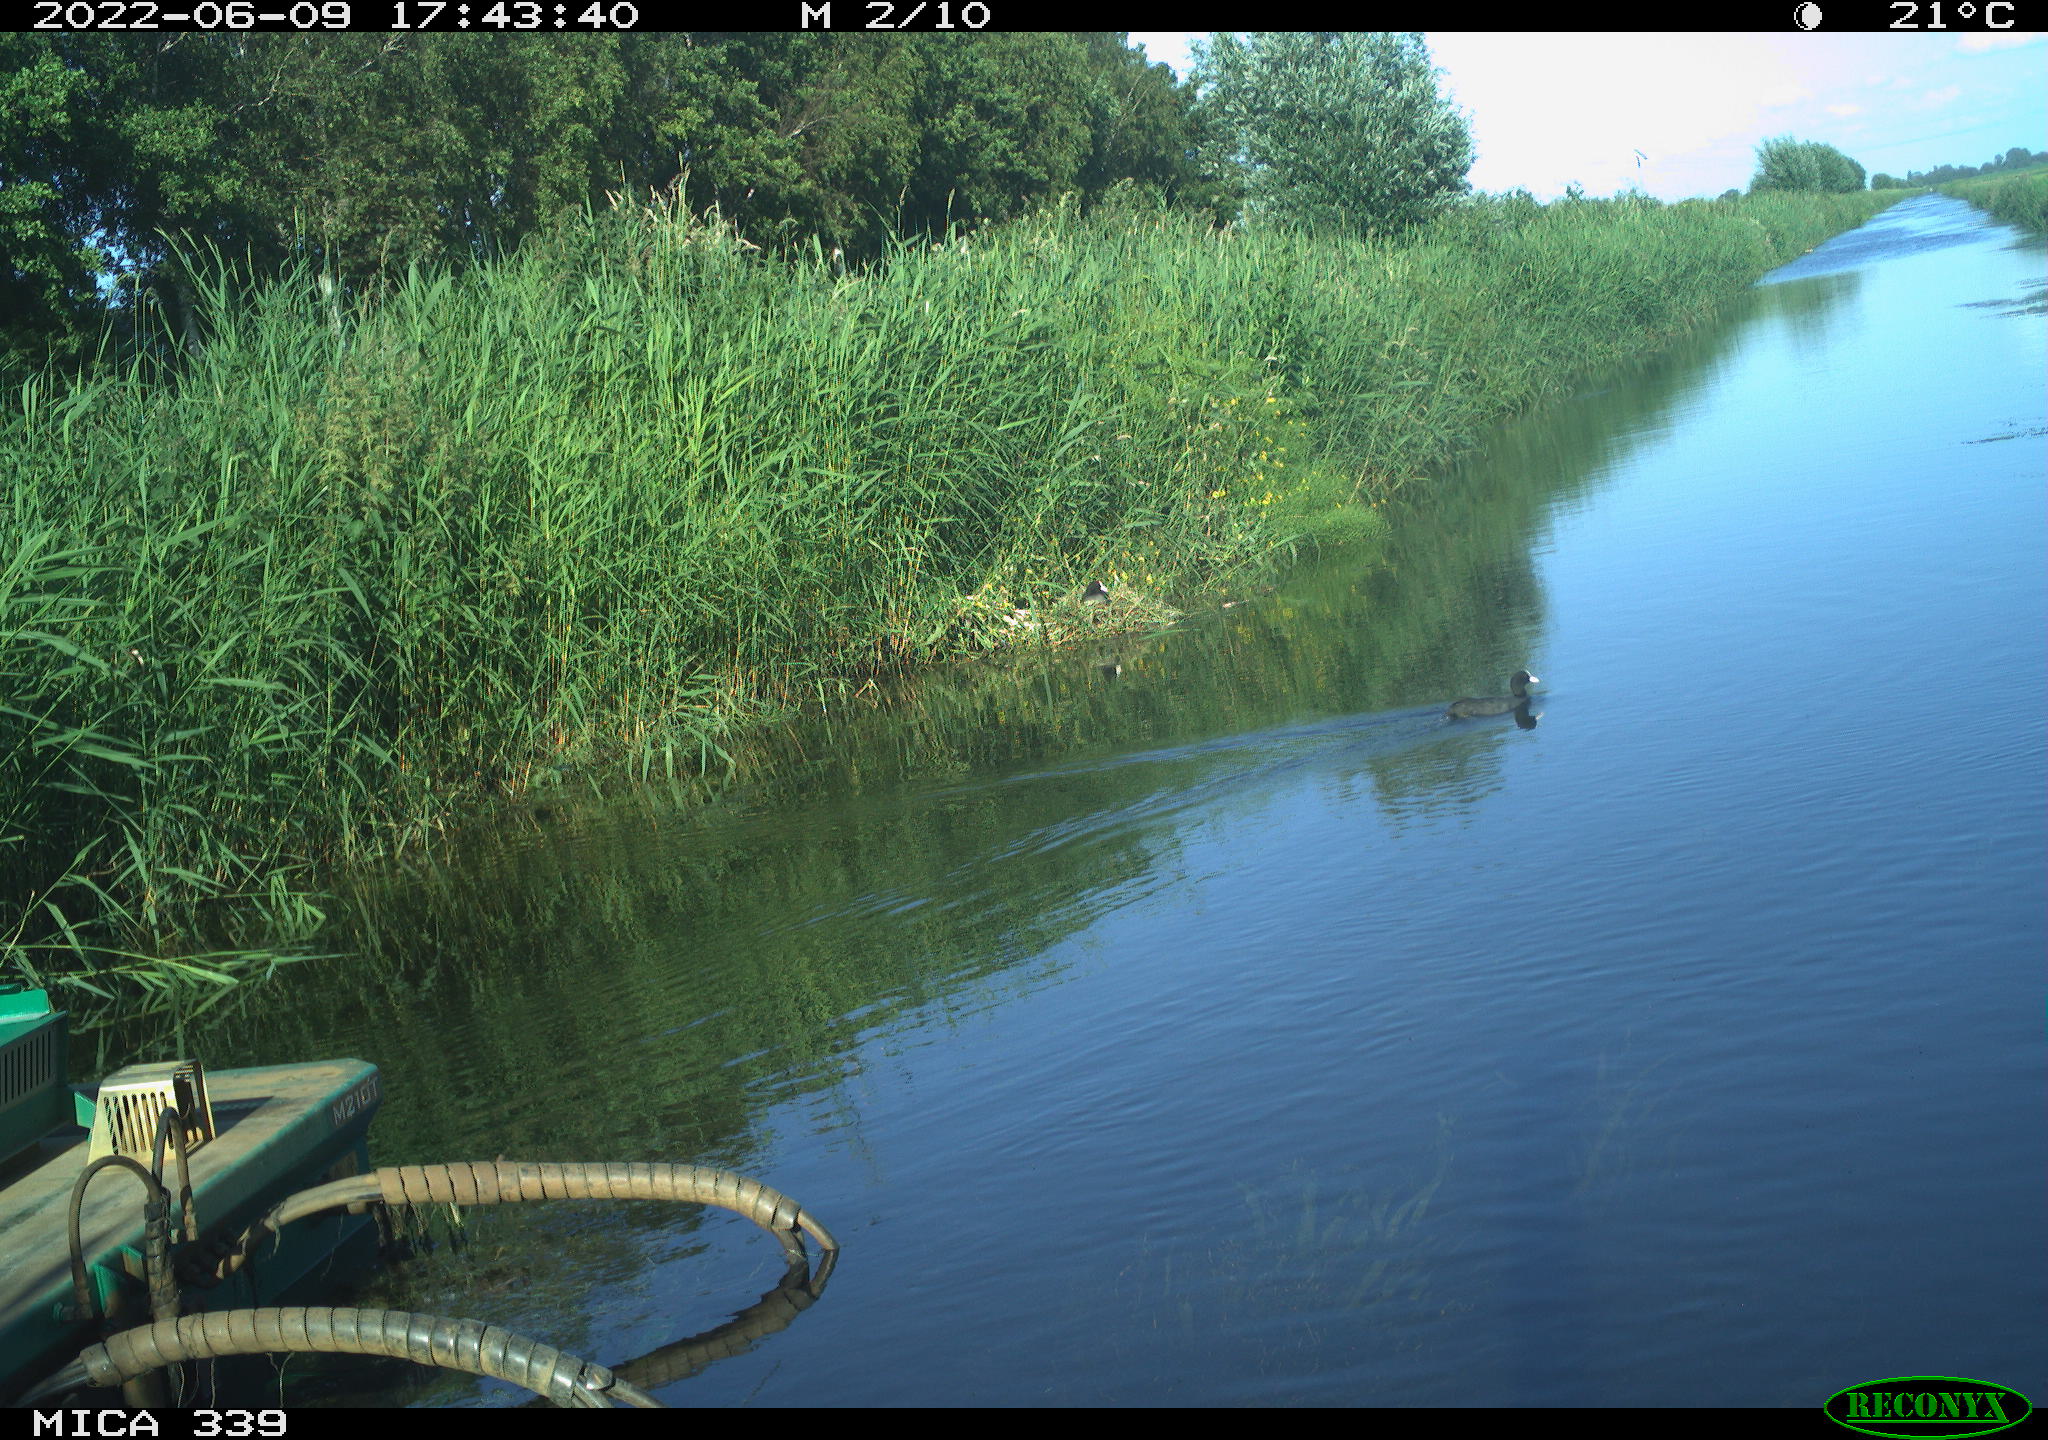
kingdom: Animalia
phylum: Chordata
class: Aves
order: Gruiformes
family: Rallidae
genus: Fulica
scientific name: Fulica atra
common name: Eurasian coot
